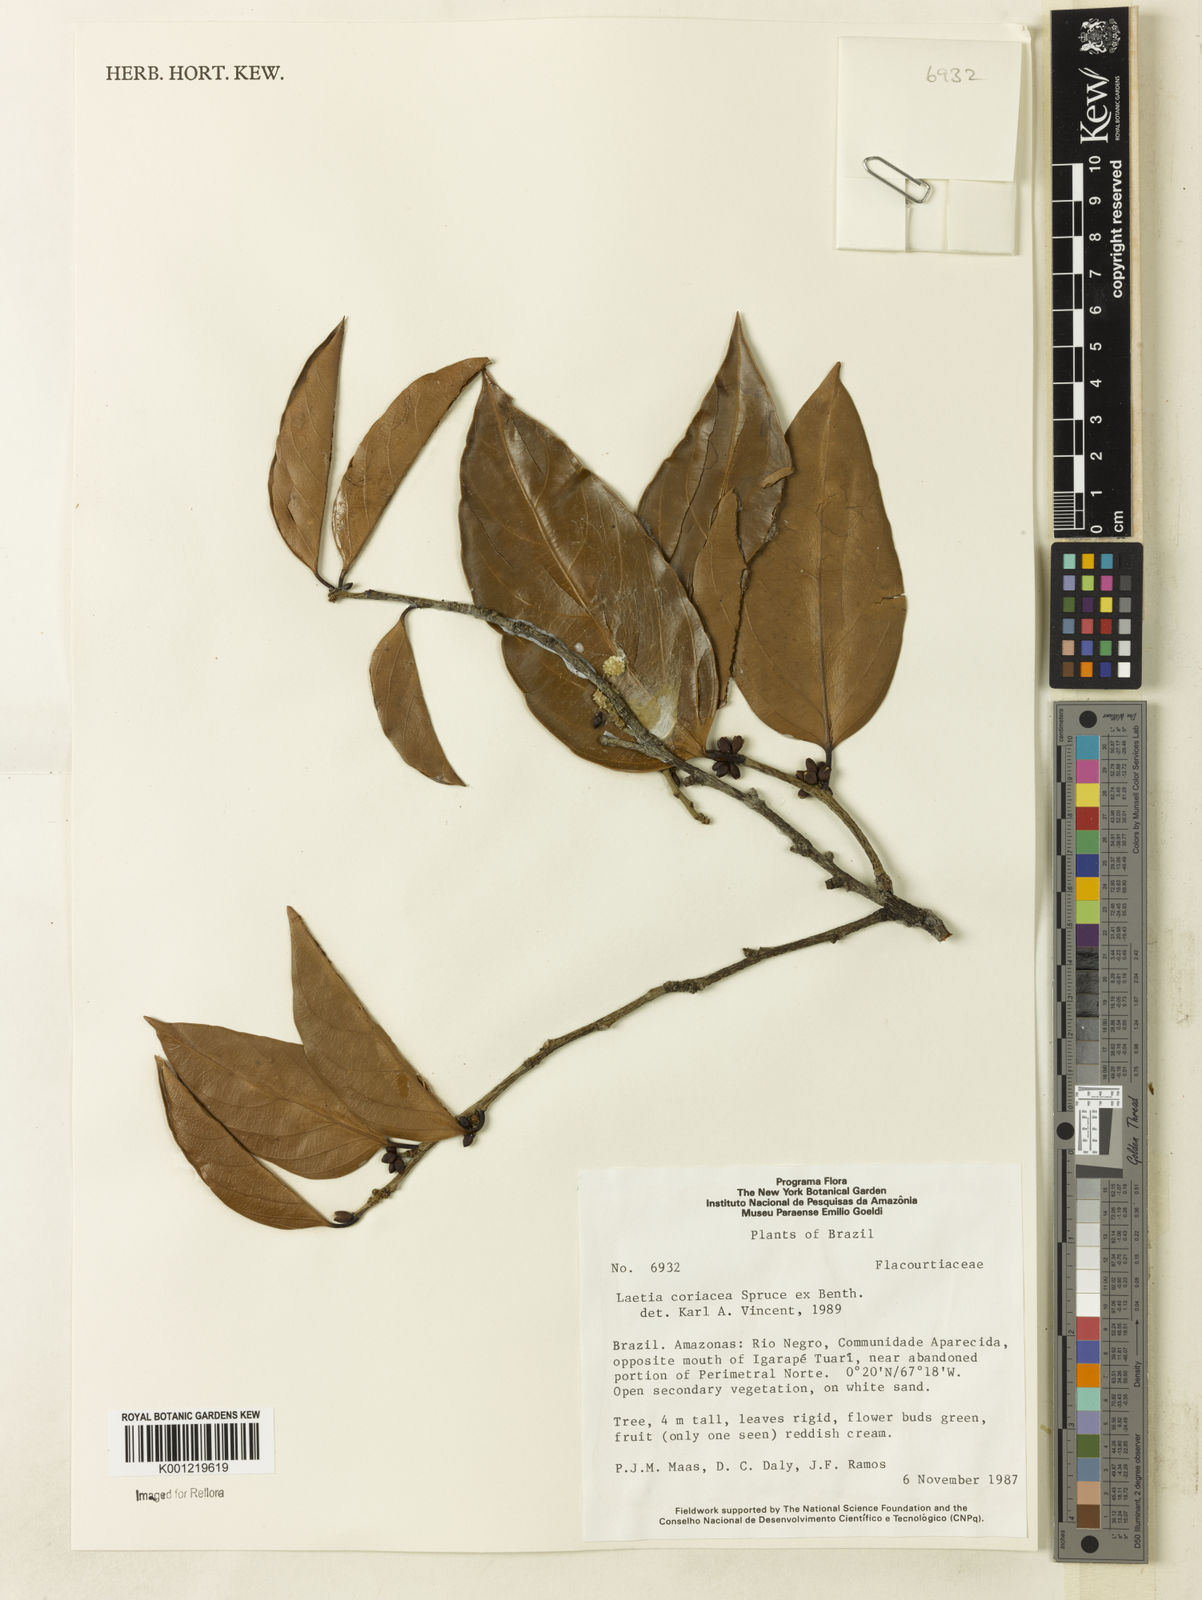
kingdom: Plantae
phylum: Tracheophyta
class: Magnoliopsida
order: Malpighiales
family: Salicaceae
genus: Irenodendron
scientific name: Irenodendron coriaceum
